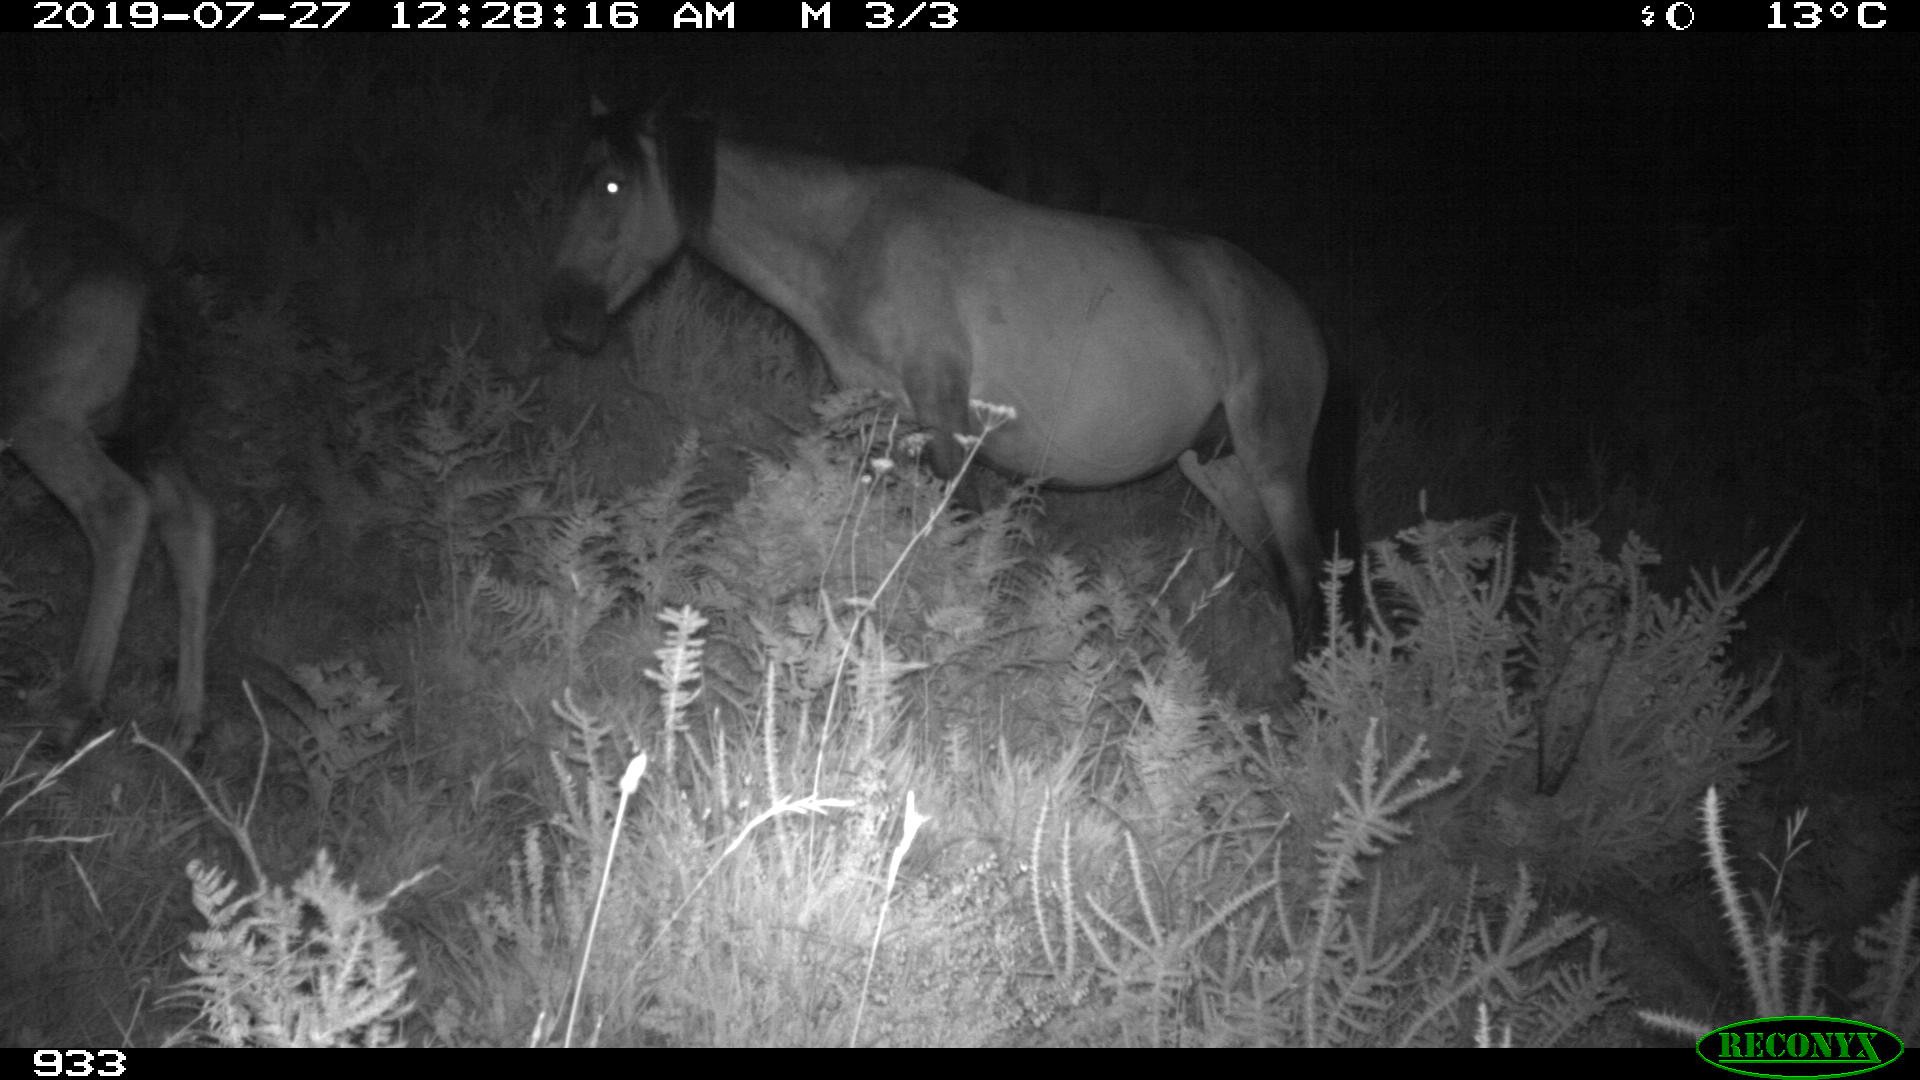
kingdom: Animalia
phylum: Chordata
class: Mammalia
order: Perissodactyla
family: Equidae
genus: Equus
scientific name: Equus caballus
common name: Horse
